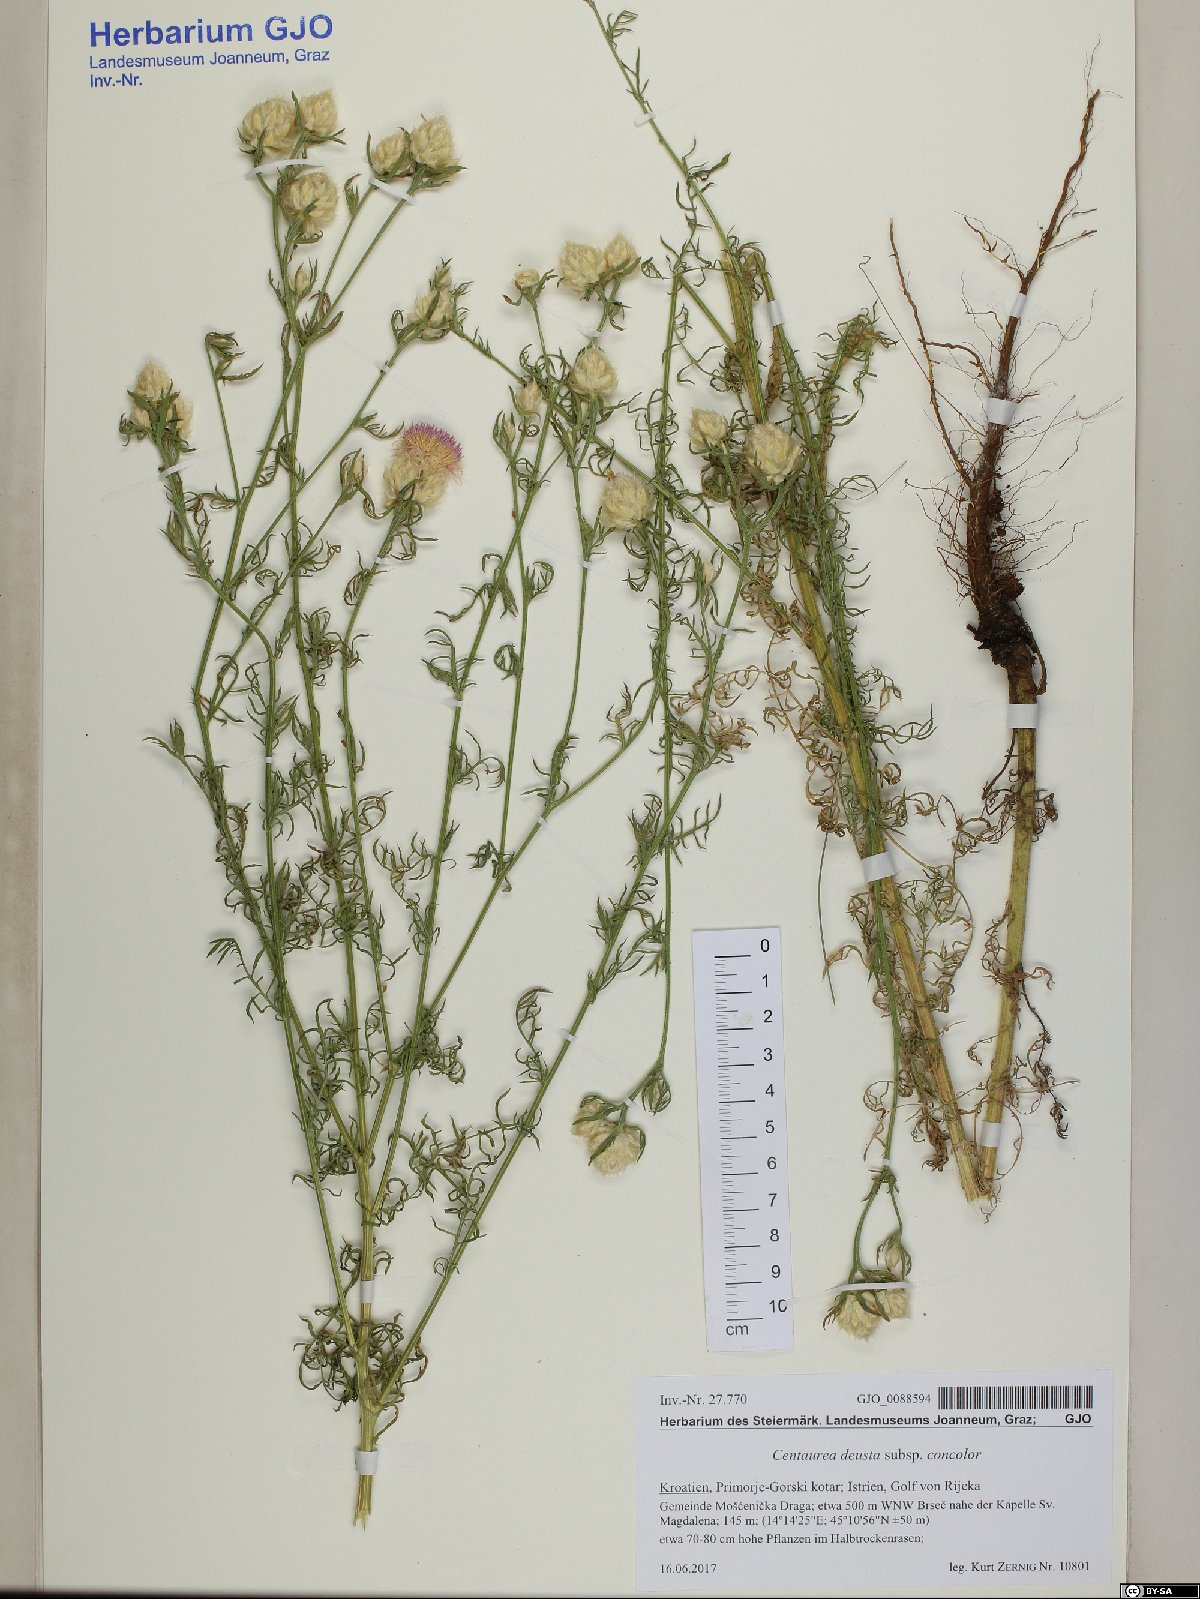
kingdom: Plantae
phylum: Tracheophyta
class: Magnoliopsida
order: Asterales
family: Asteraceae
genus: Centaurea
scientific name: Centaurea deusta
